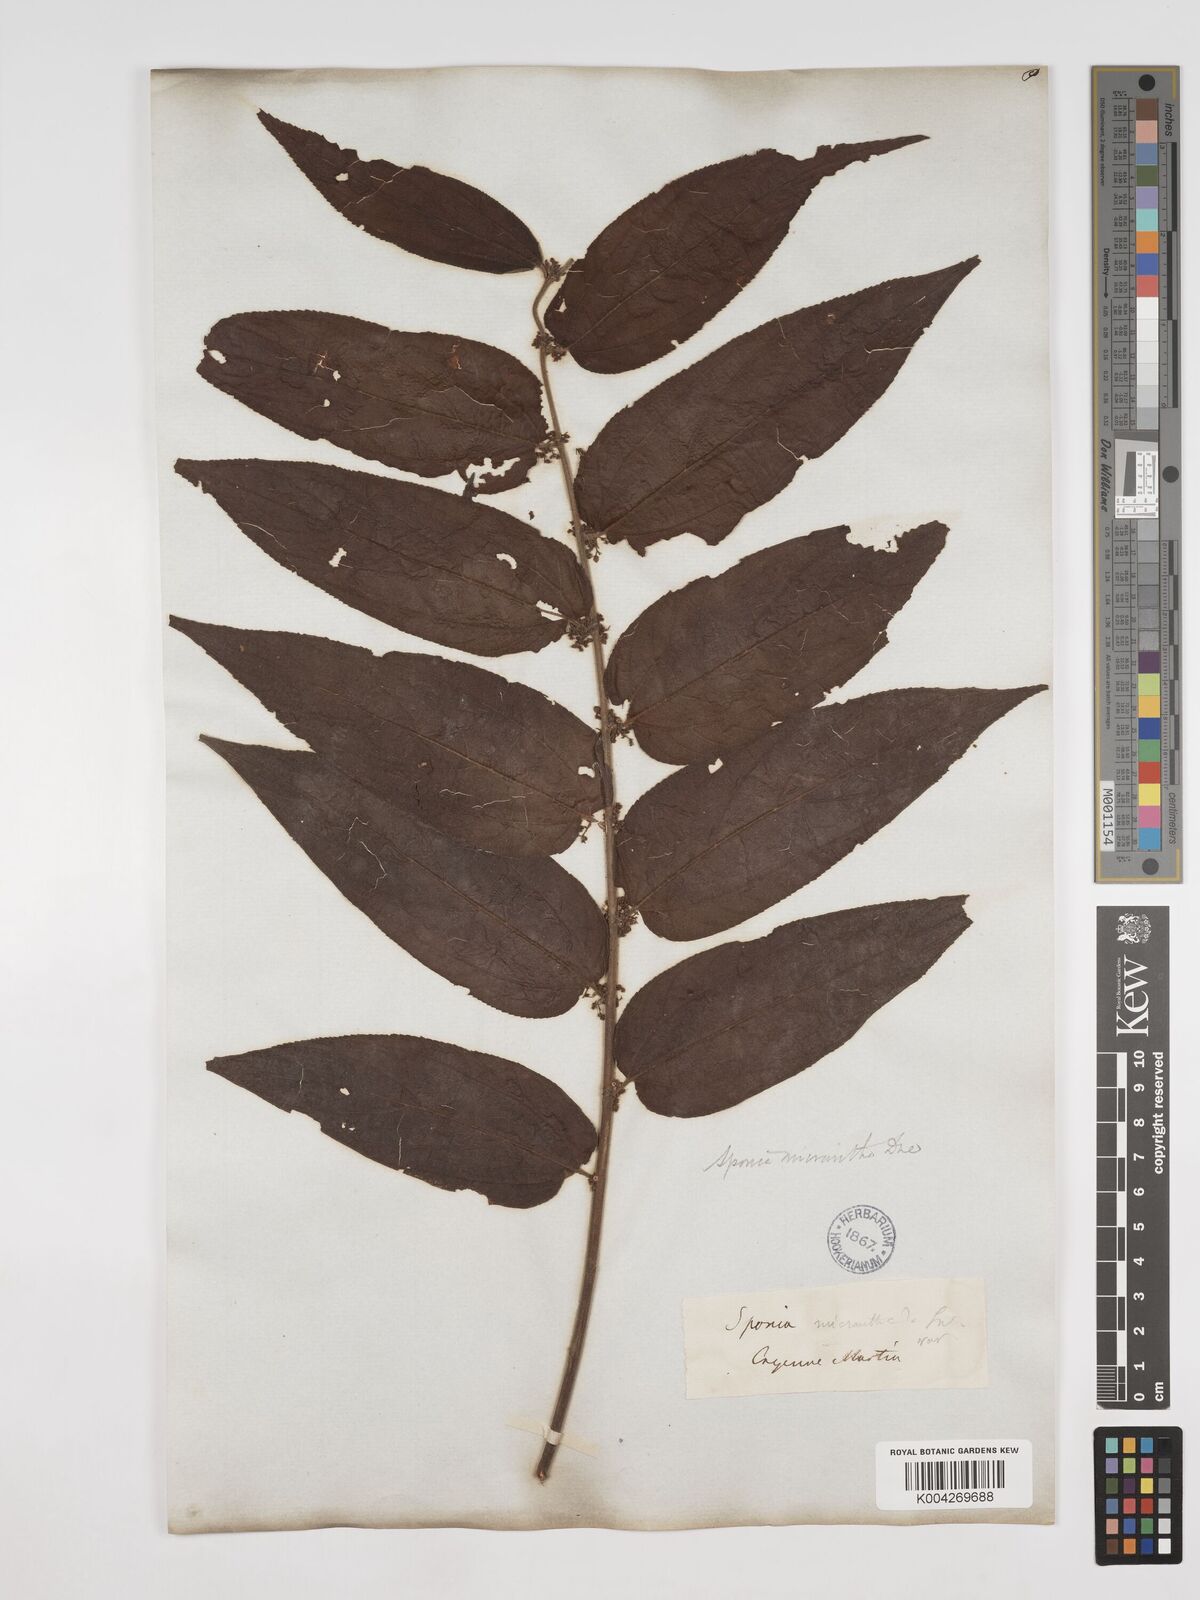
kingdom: Plantae
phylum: Tracheophyta
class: Magnoliopsida
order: Rosales
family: Cannabaceae
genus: Trema
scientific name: Trema micranthum
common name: Jamaican nettletree
